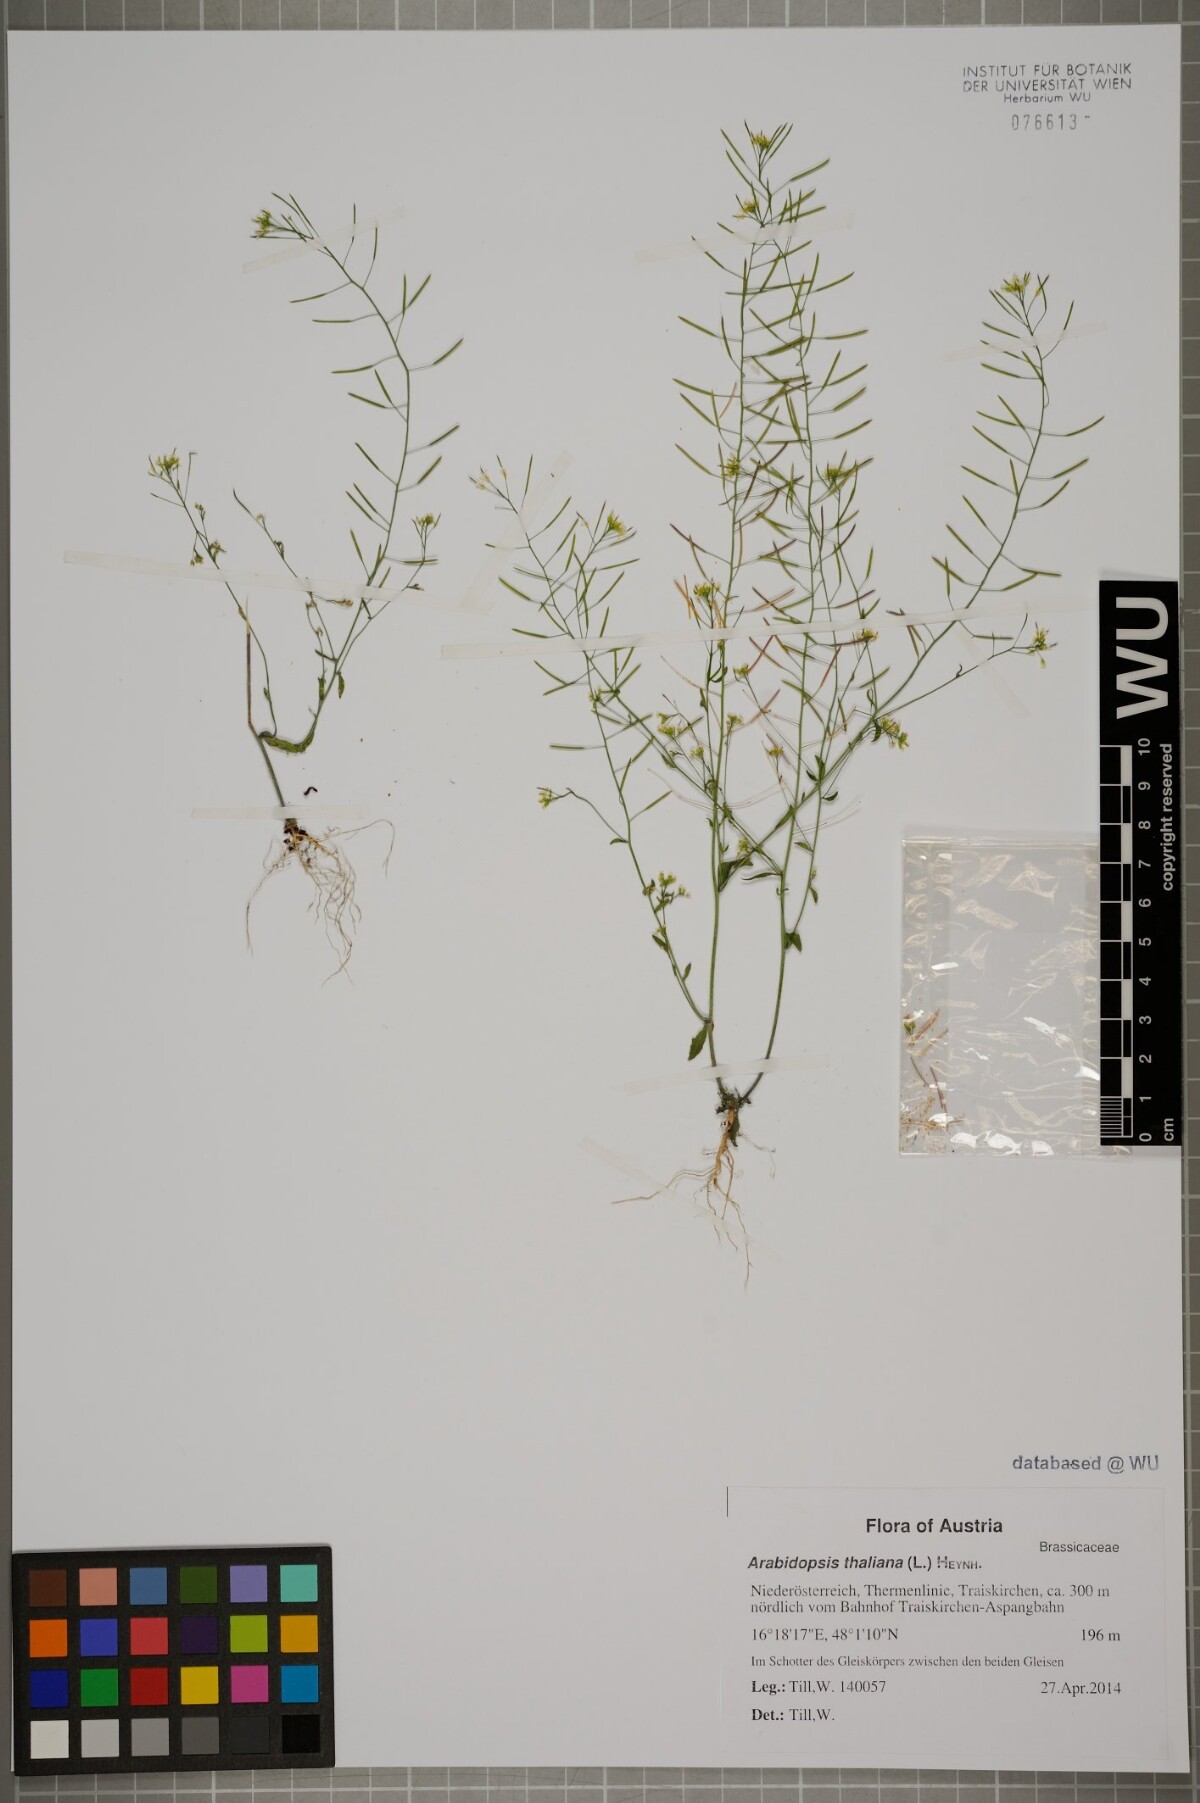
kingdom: Plantae
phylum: Tracheophyta
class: Magnoliopsida
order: Brassicales
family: Brassicaceae
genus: Arabidopsis
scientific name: Arabidopsis thaliana
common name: Thale cress
